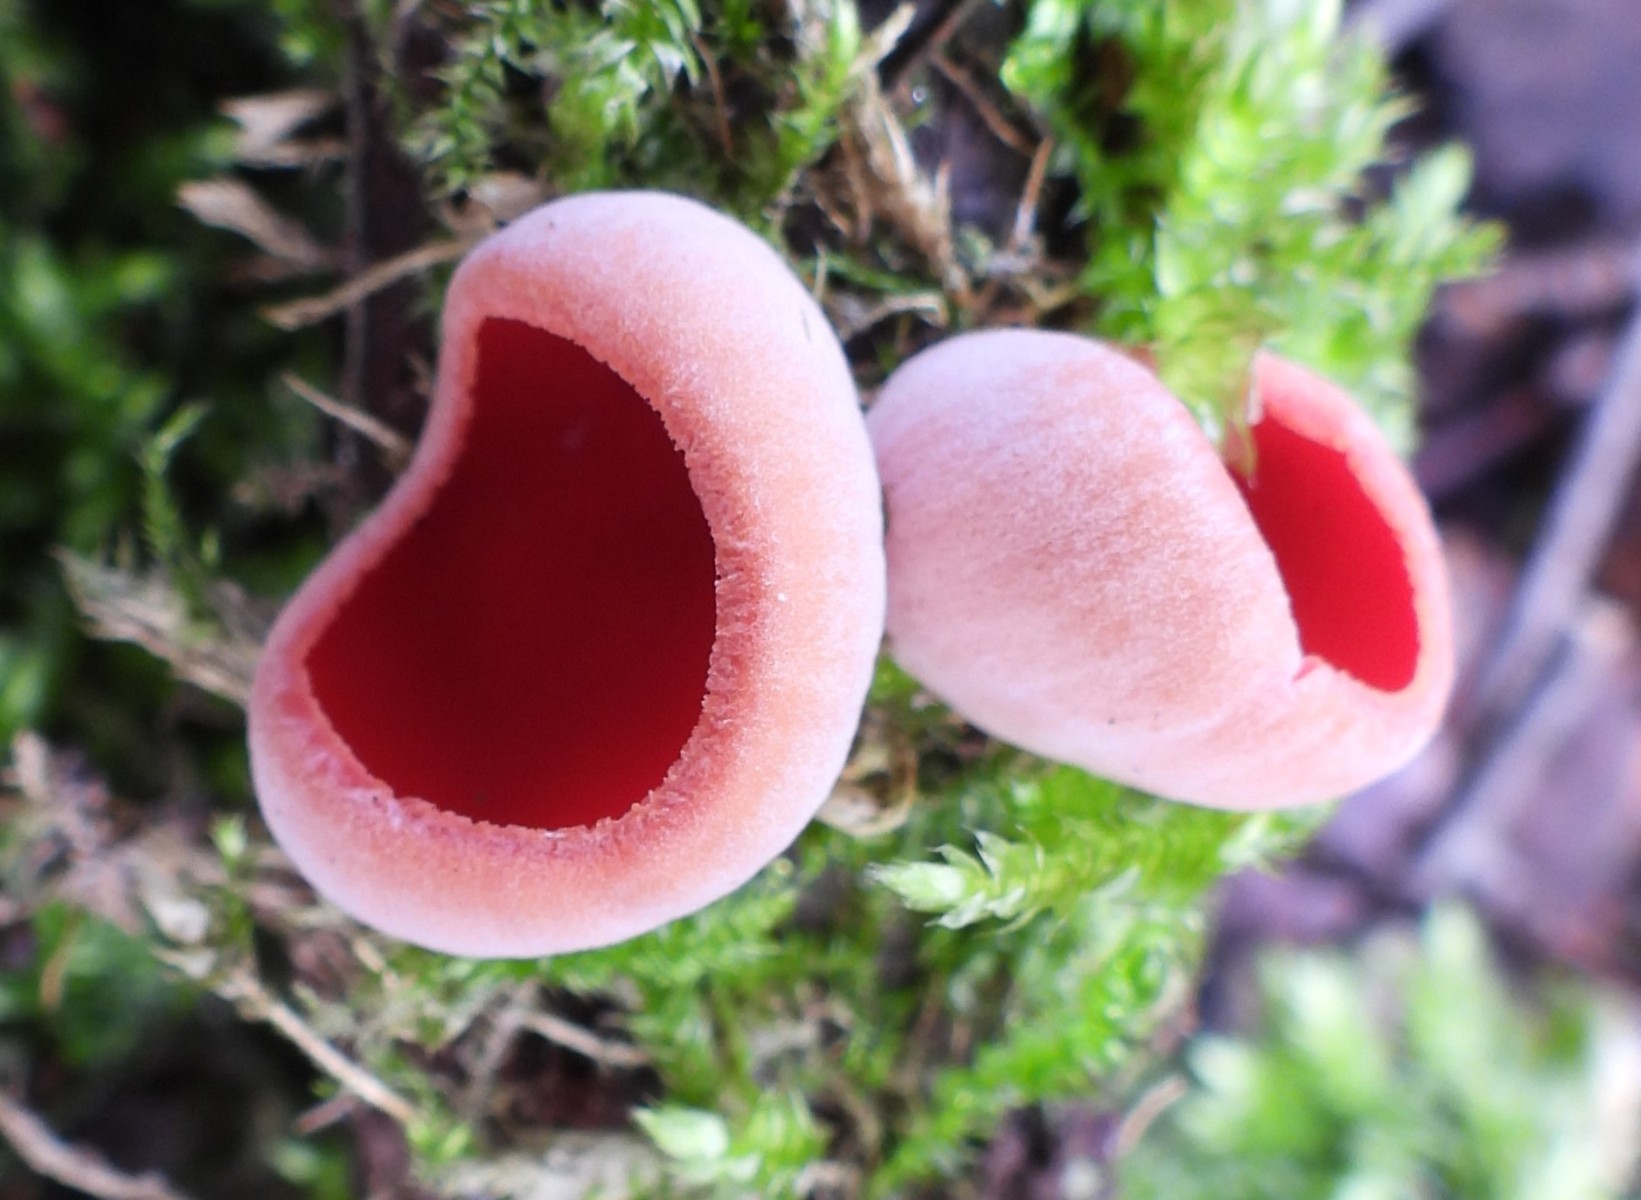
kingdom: Fungi
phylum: Ascomycota
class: Pezizomycetes
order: Pezizales
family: Sarcoscyphaceae
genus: Sarcoscypha
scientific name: Sarcoscypha austriaca
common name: krølhåret pragtbæger
